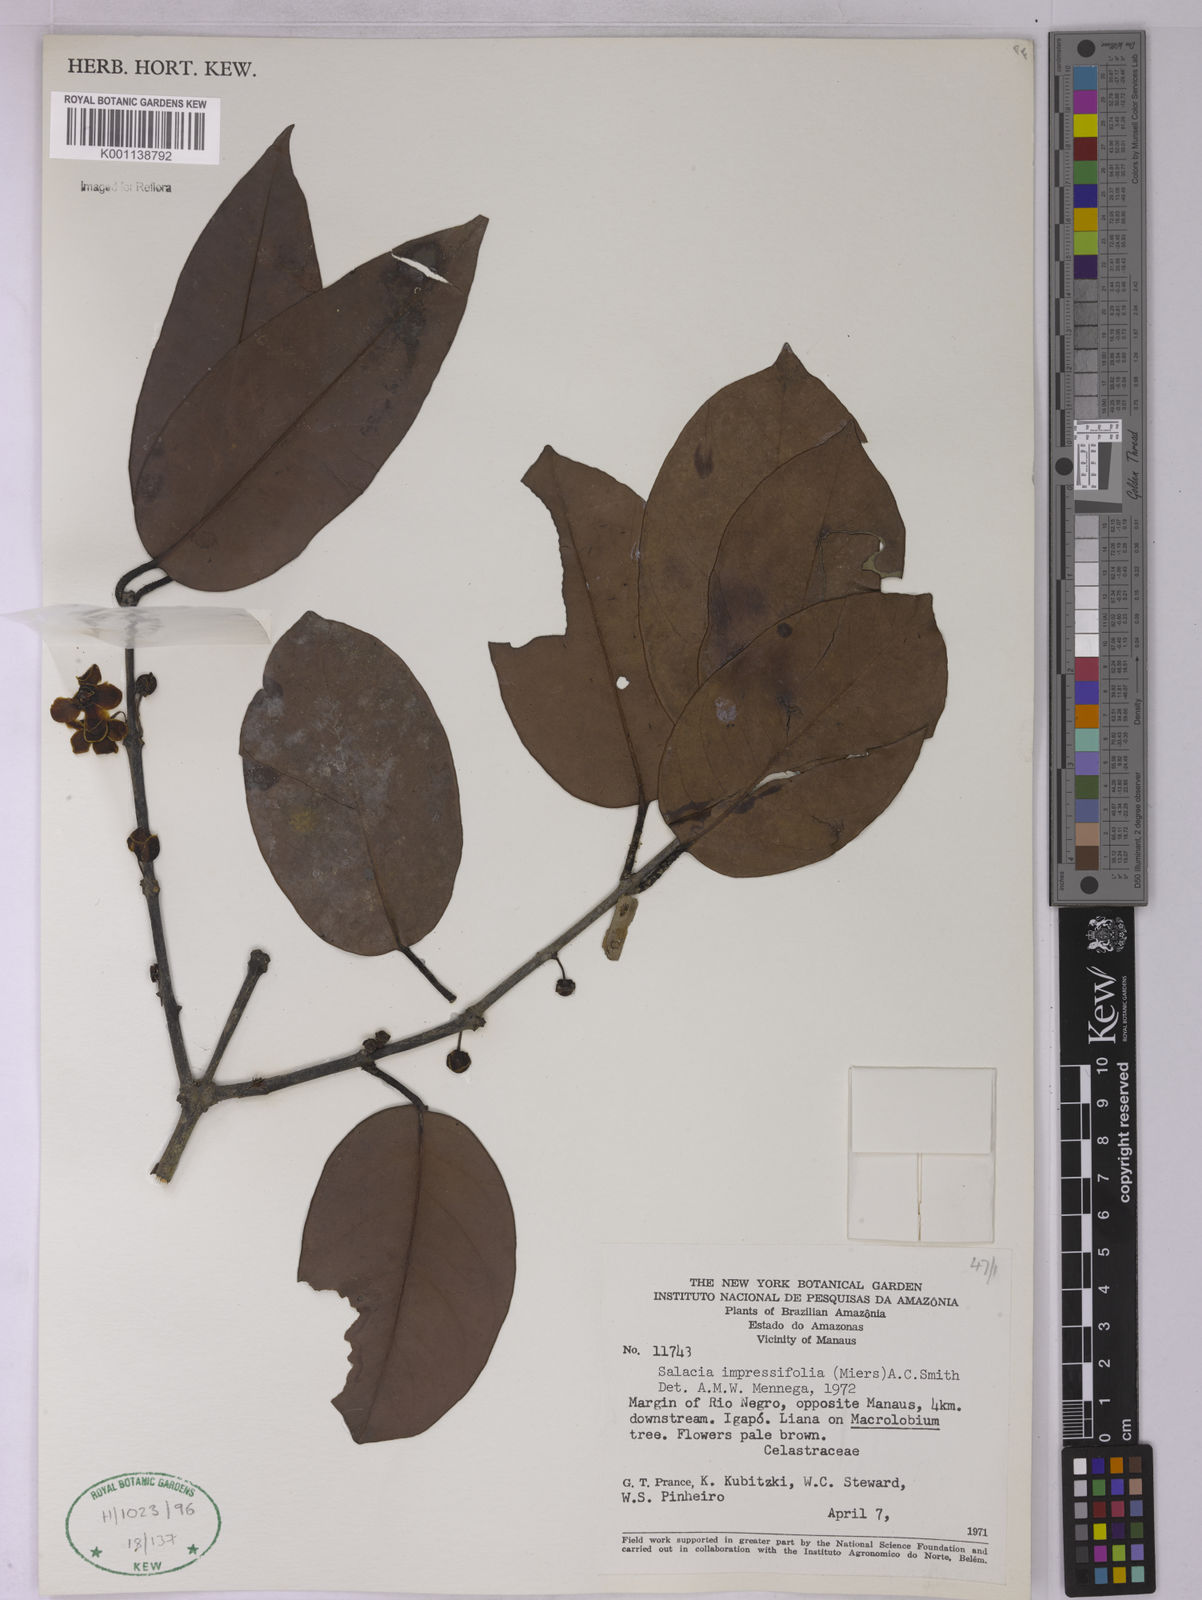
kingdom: Plantae
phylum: Tracheophyta
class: Magnoliopsida
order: Celastrales
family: Celastraceae
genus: Salacia
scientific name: Salacia impressifolia
